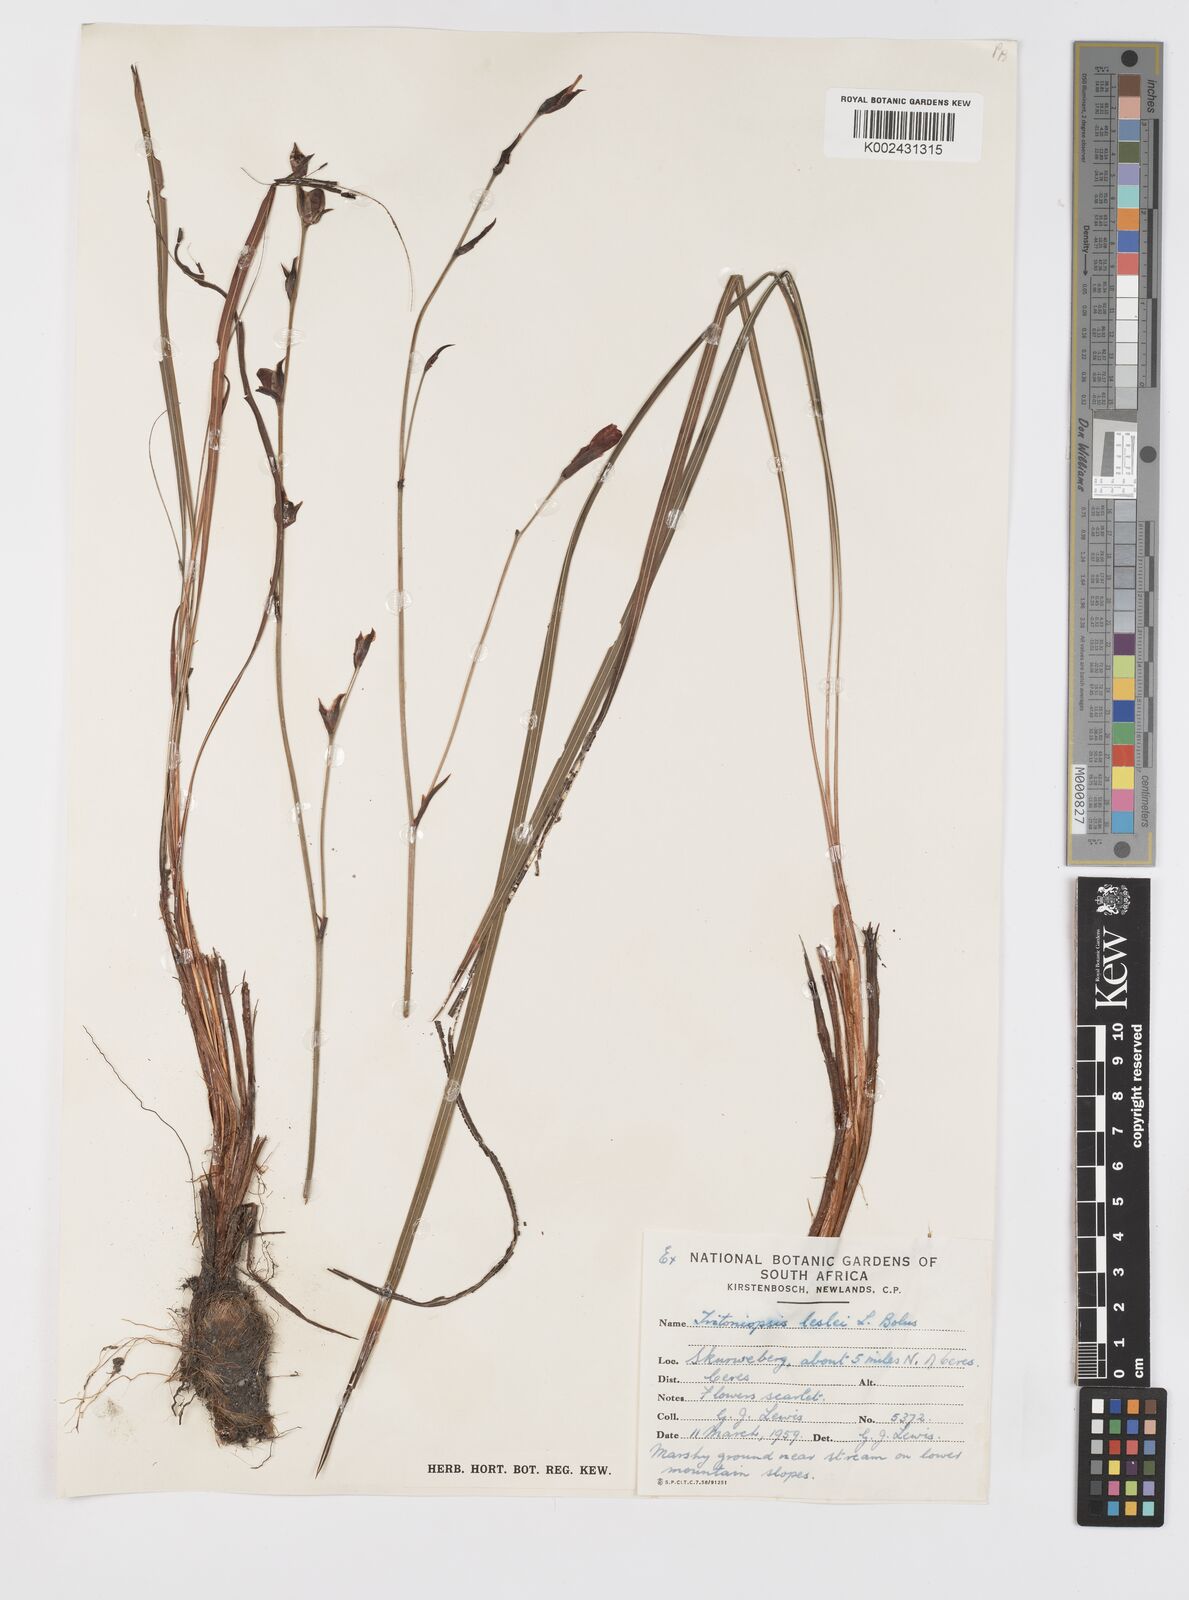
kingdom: Plantae
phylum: Tracheophyta
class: Liliopsida
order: Asparagales
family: Iridaceae
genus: Tritoniopsis
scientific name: Tritoniopsis lesliei
